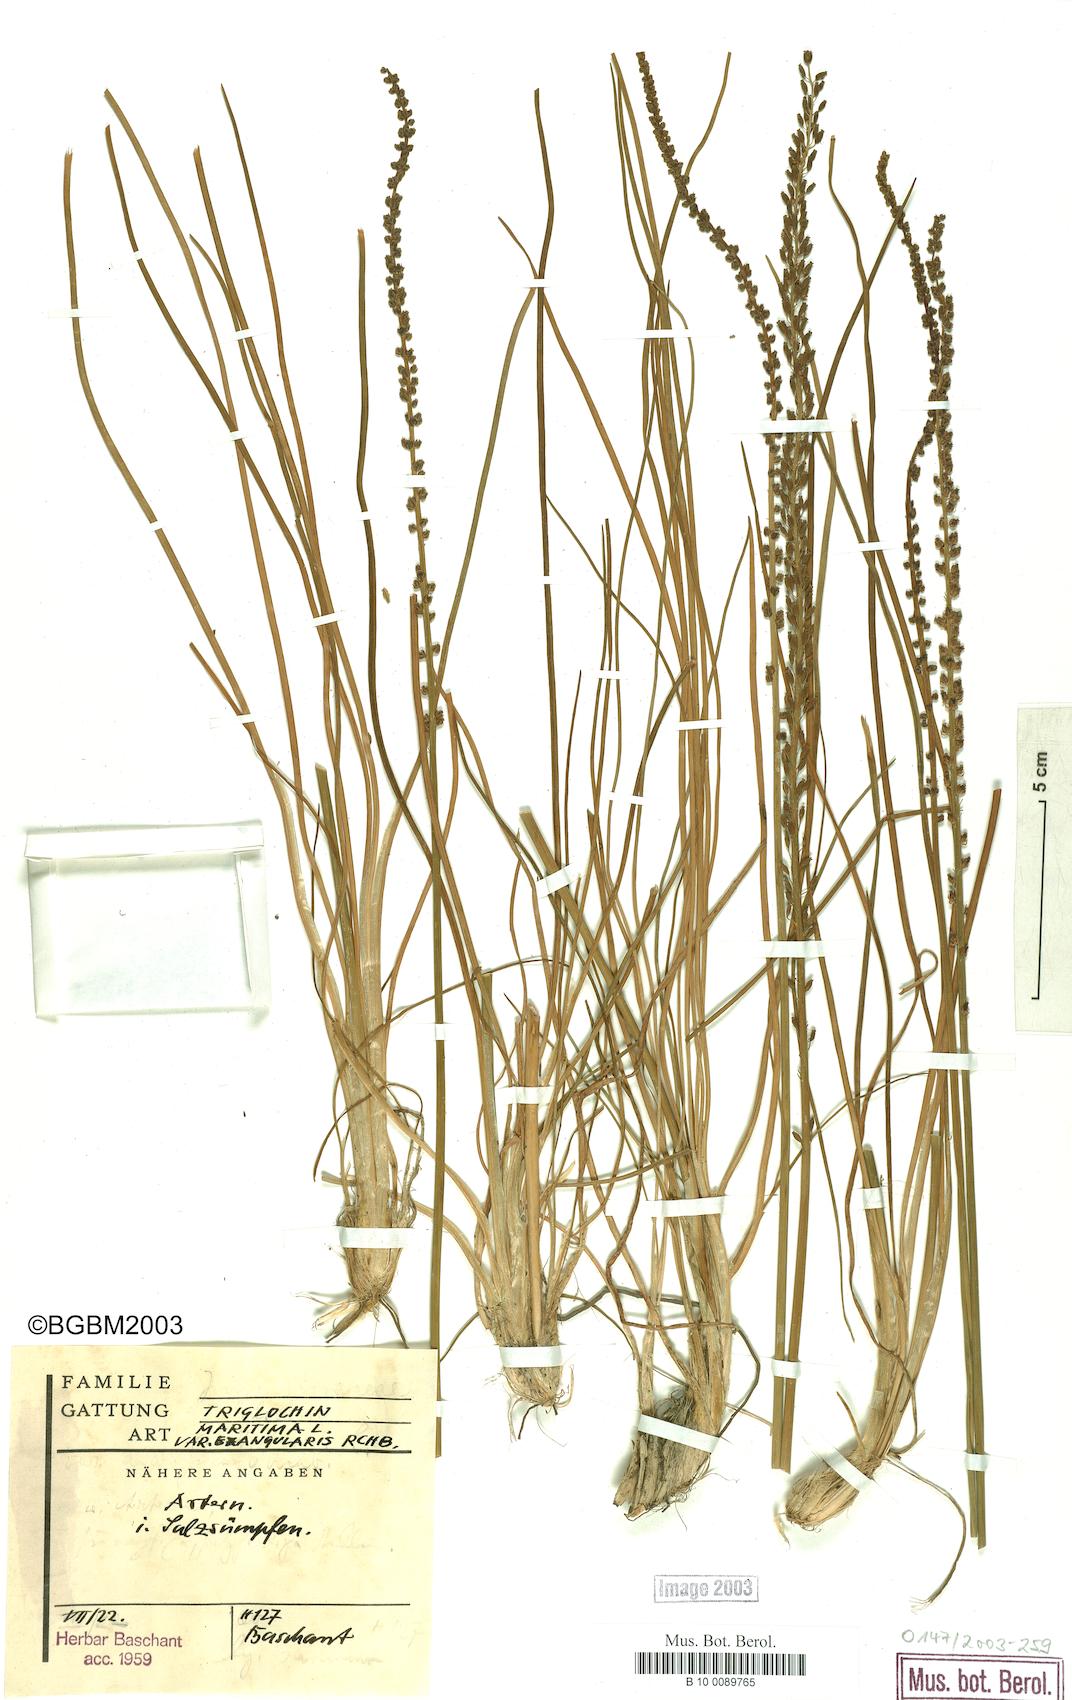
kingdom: Plantae
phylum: Tracheophyta
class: Liliopsida
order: Alismatales
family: Juncaginaceae
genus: Triglochin
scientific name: Triglochin maritima
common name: Sea arrowgrass
